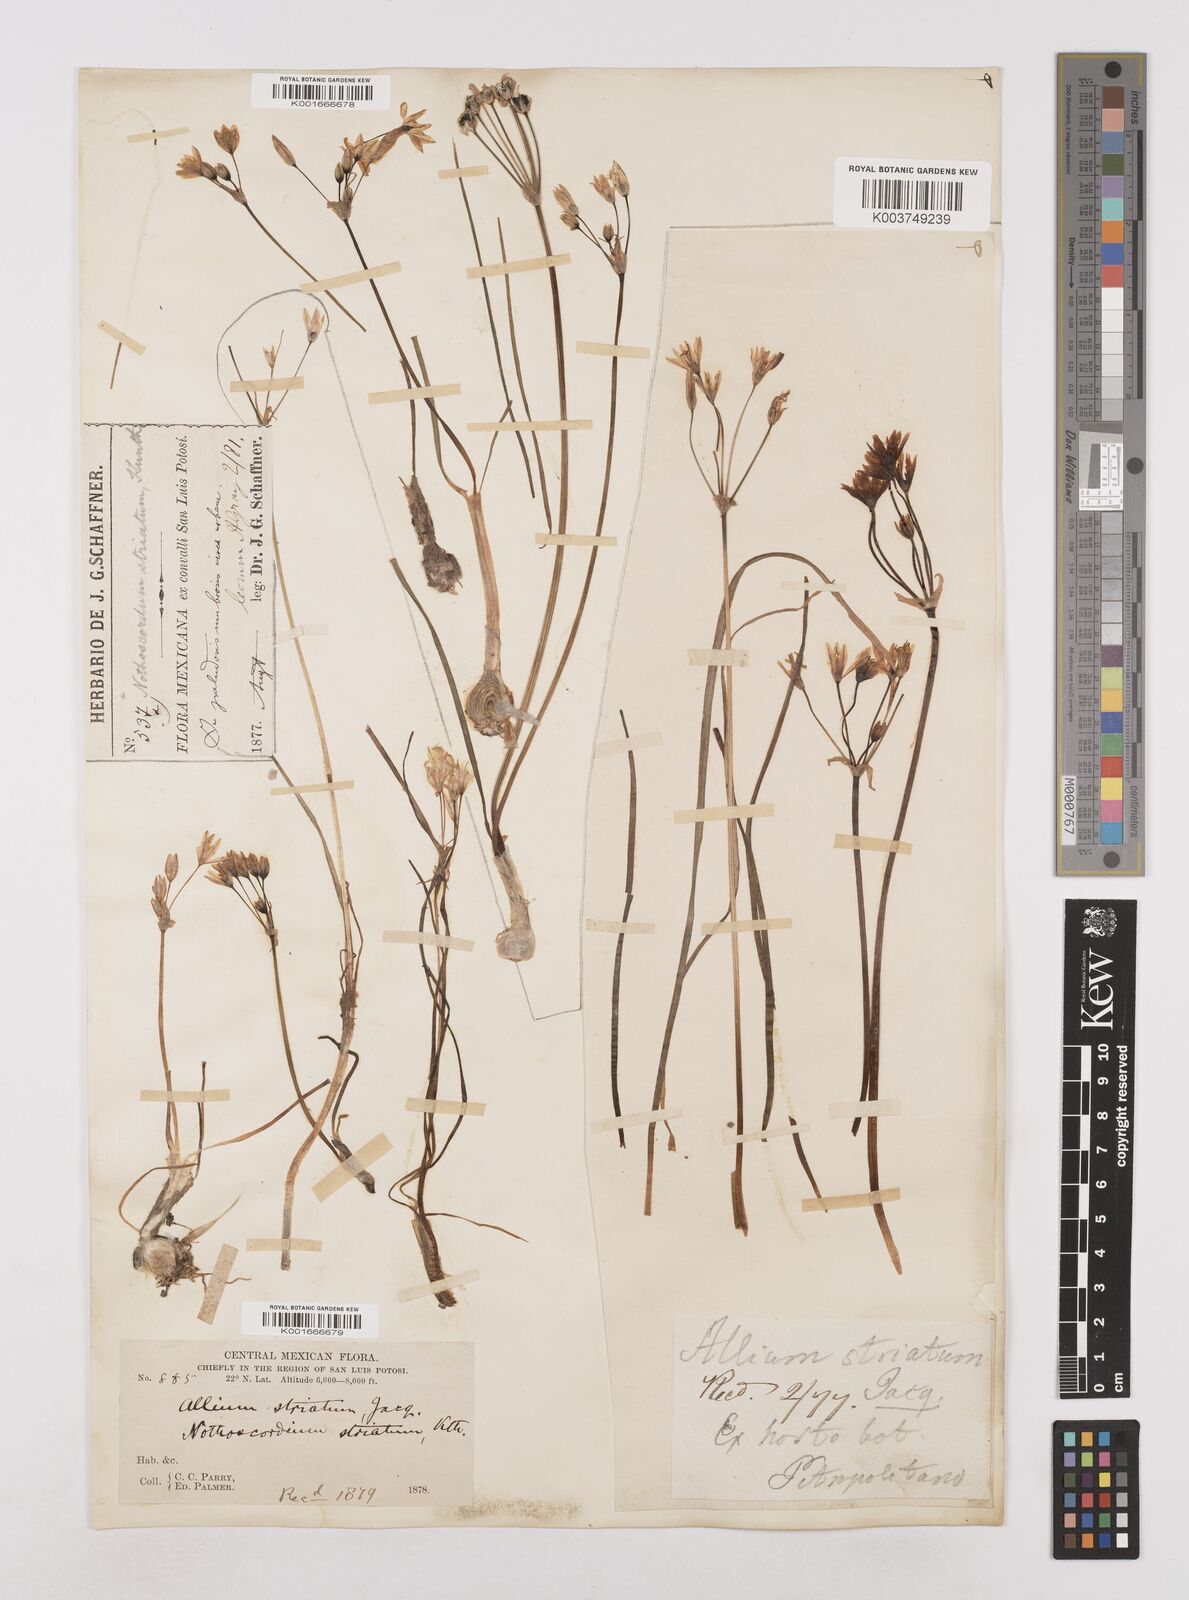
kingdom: Plantae
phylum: Tracheophyta
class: Liliopsida
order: Asparagales
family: Amaryllidaceae
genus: Nothoscordum
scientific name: Nothoscordum bivalve
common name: Crow-poison
